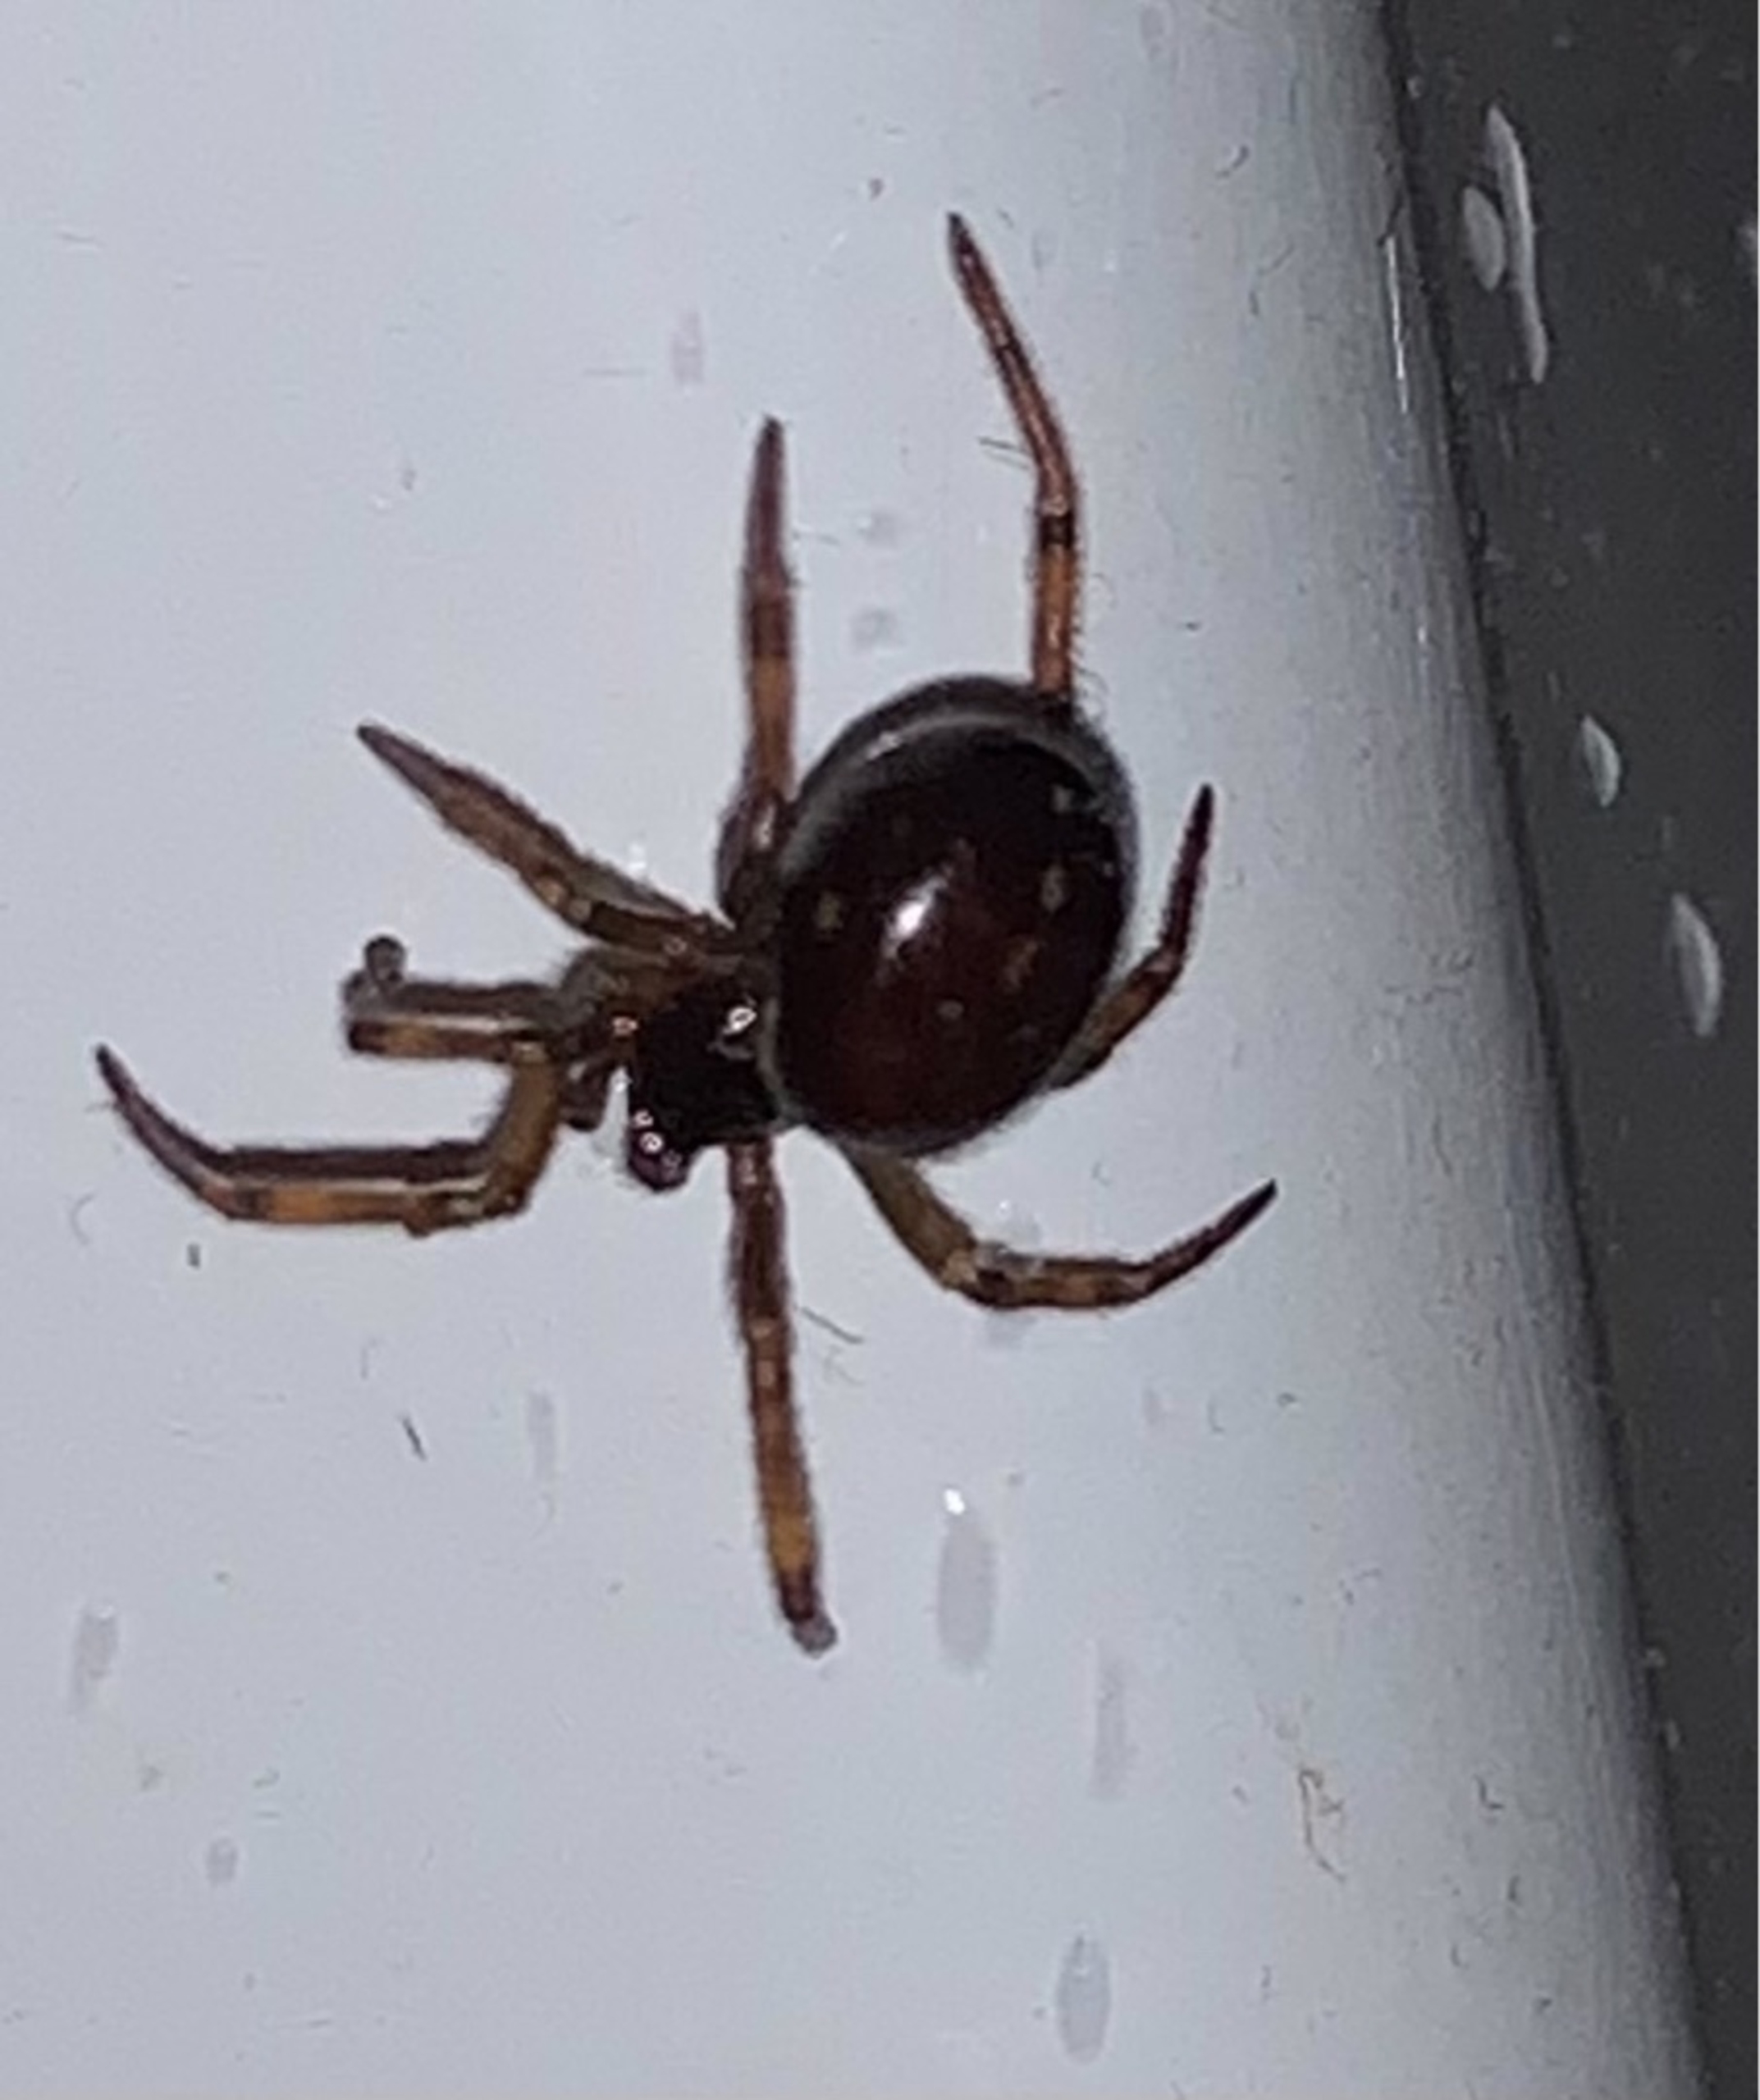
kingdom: Animalia
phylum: Arthropoda
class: Arachnida
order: Araneae
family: Theridiidae
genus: Steatoda
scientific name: Steatoda bipunctata
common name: Fedtedderkop
